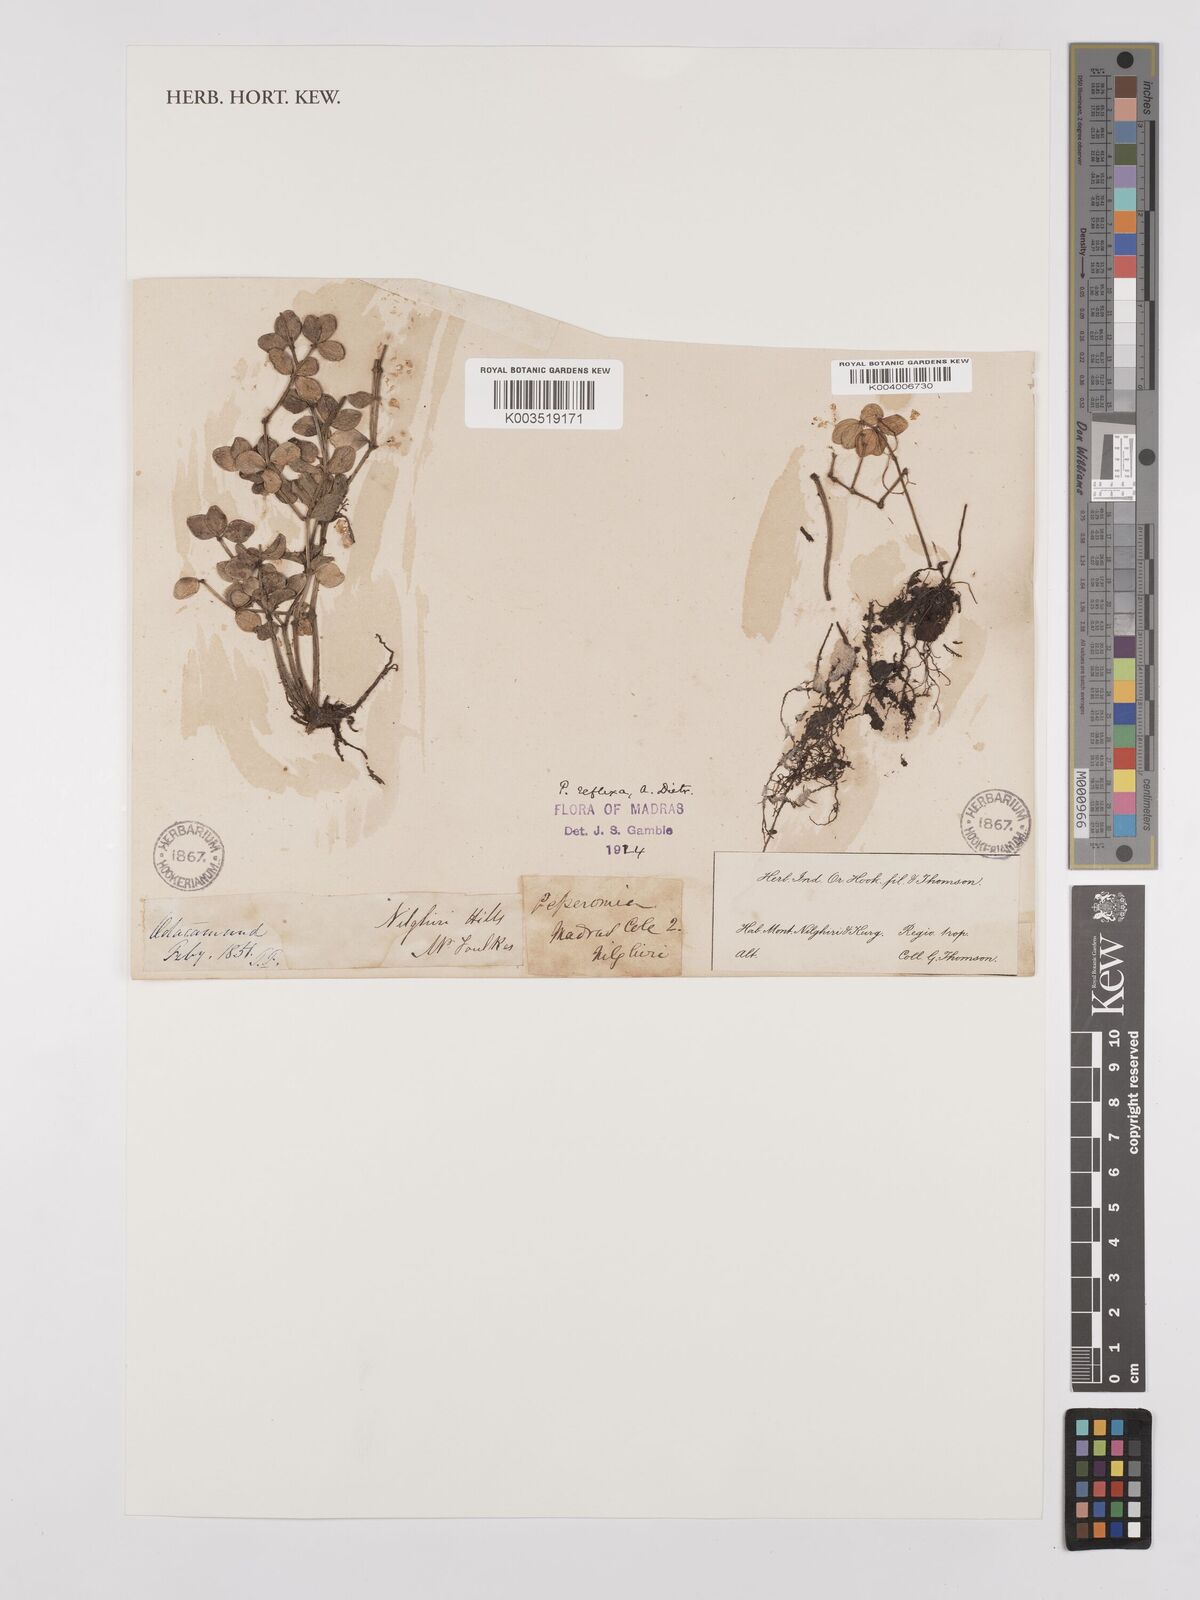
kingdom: Plantae
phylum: Tracheophyta
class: Magnoliopsida
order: Piperales
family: Piperaceae
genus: Peperomia
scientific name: Peperomia reflexa
